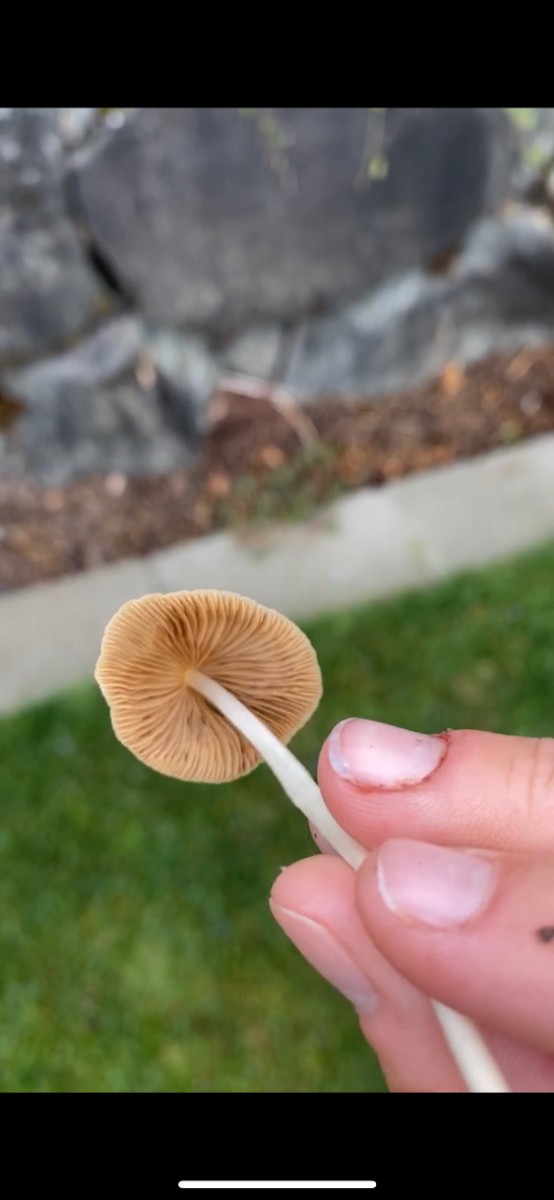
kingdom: Fungi
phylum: Basidiomycota
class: Agaricomycetes
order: Agaricales
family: Bolbitiaceae
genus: Conocybe
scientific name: Conocybe
